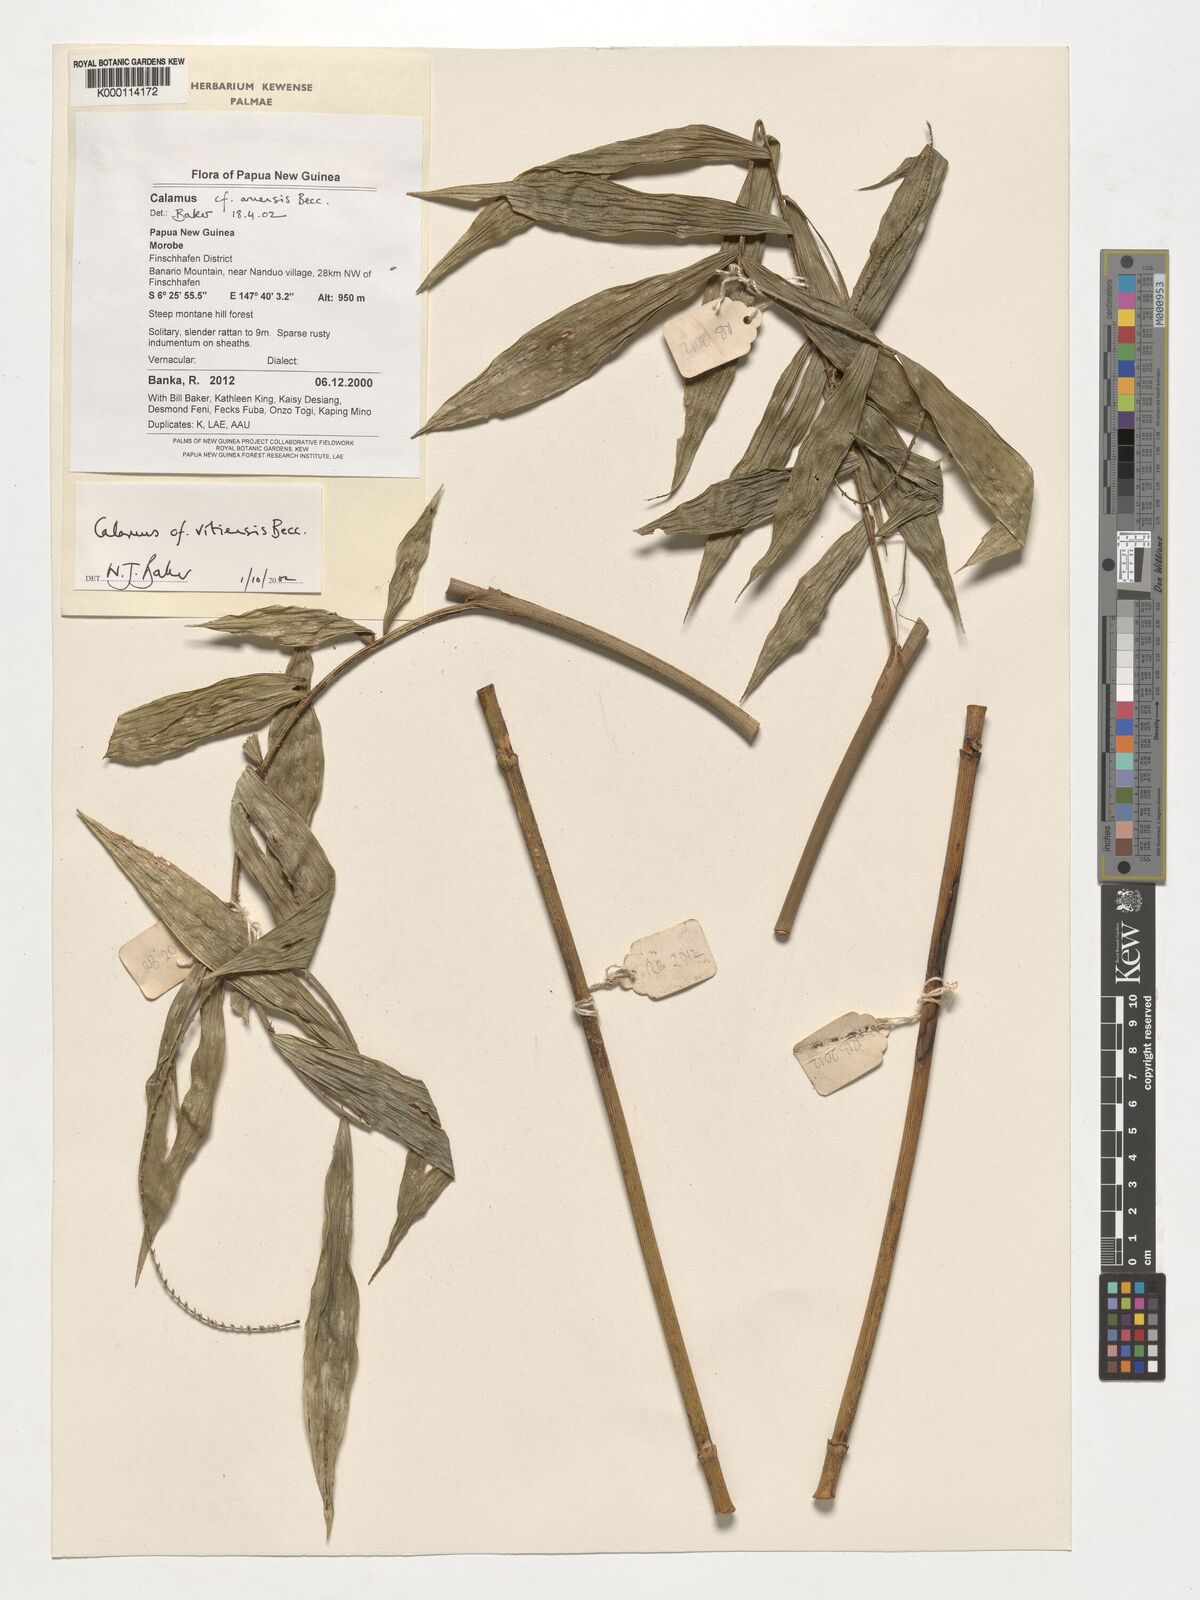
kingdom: Plantae
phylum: Tracheophyta
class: Liliopsida
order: Arecales
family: Arecaceae
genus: Calamus
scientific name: Calamus
